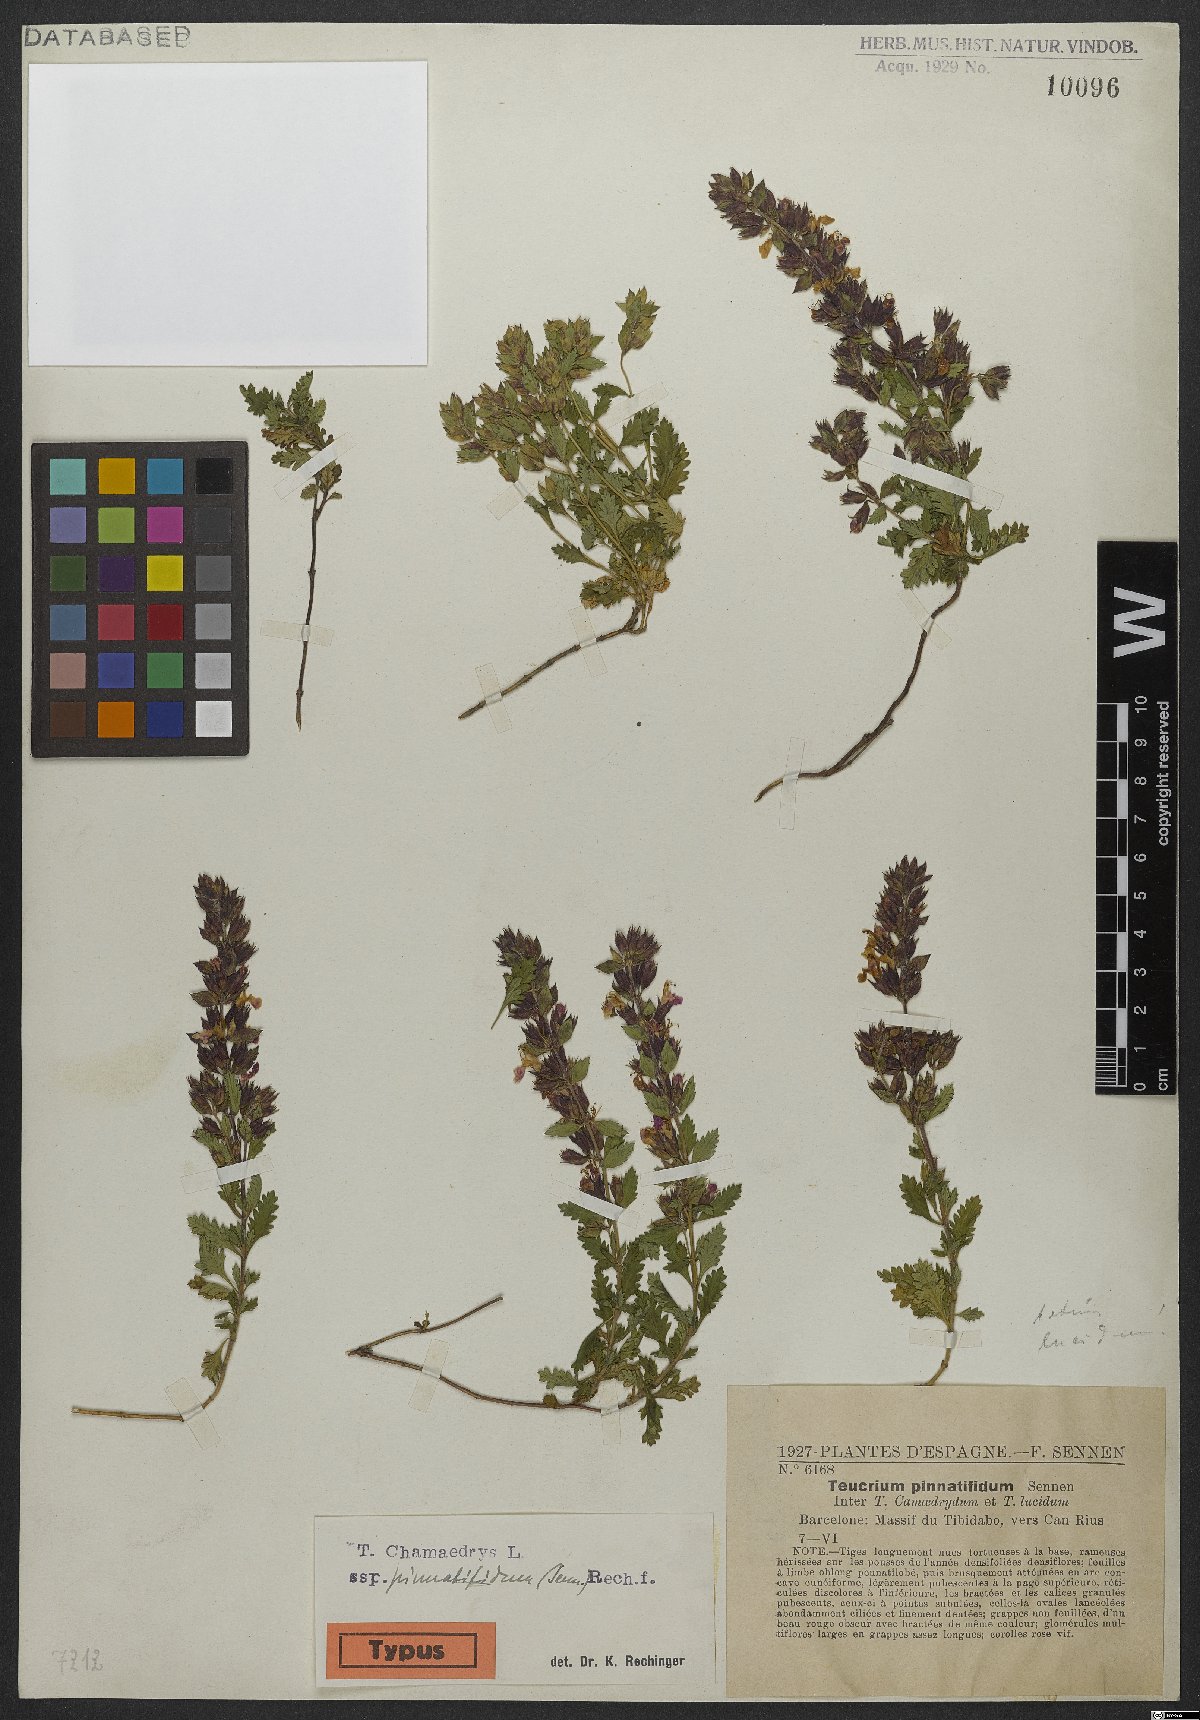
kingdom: Plantae
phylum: Tracheophyta
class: Magnoliopsida
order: Lamiales
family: Lamiaceae
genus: Teucrium
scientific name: Teucrium chamaedrys
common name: Wall germander
